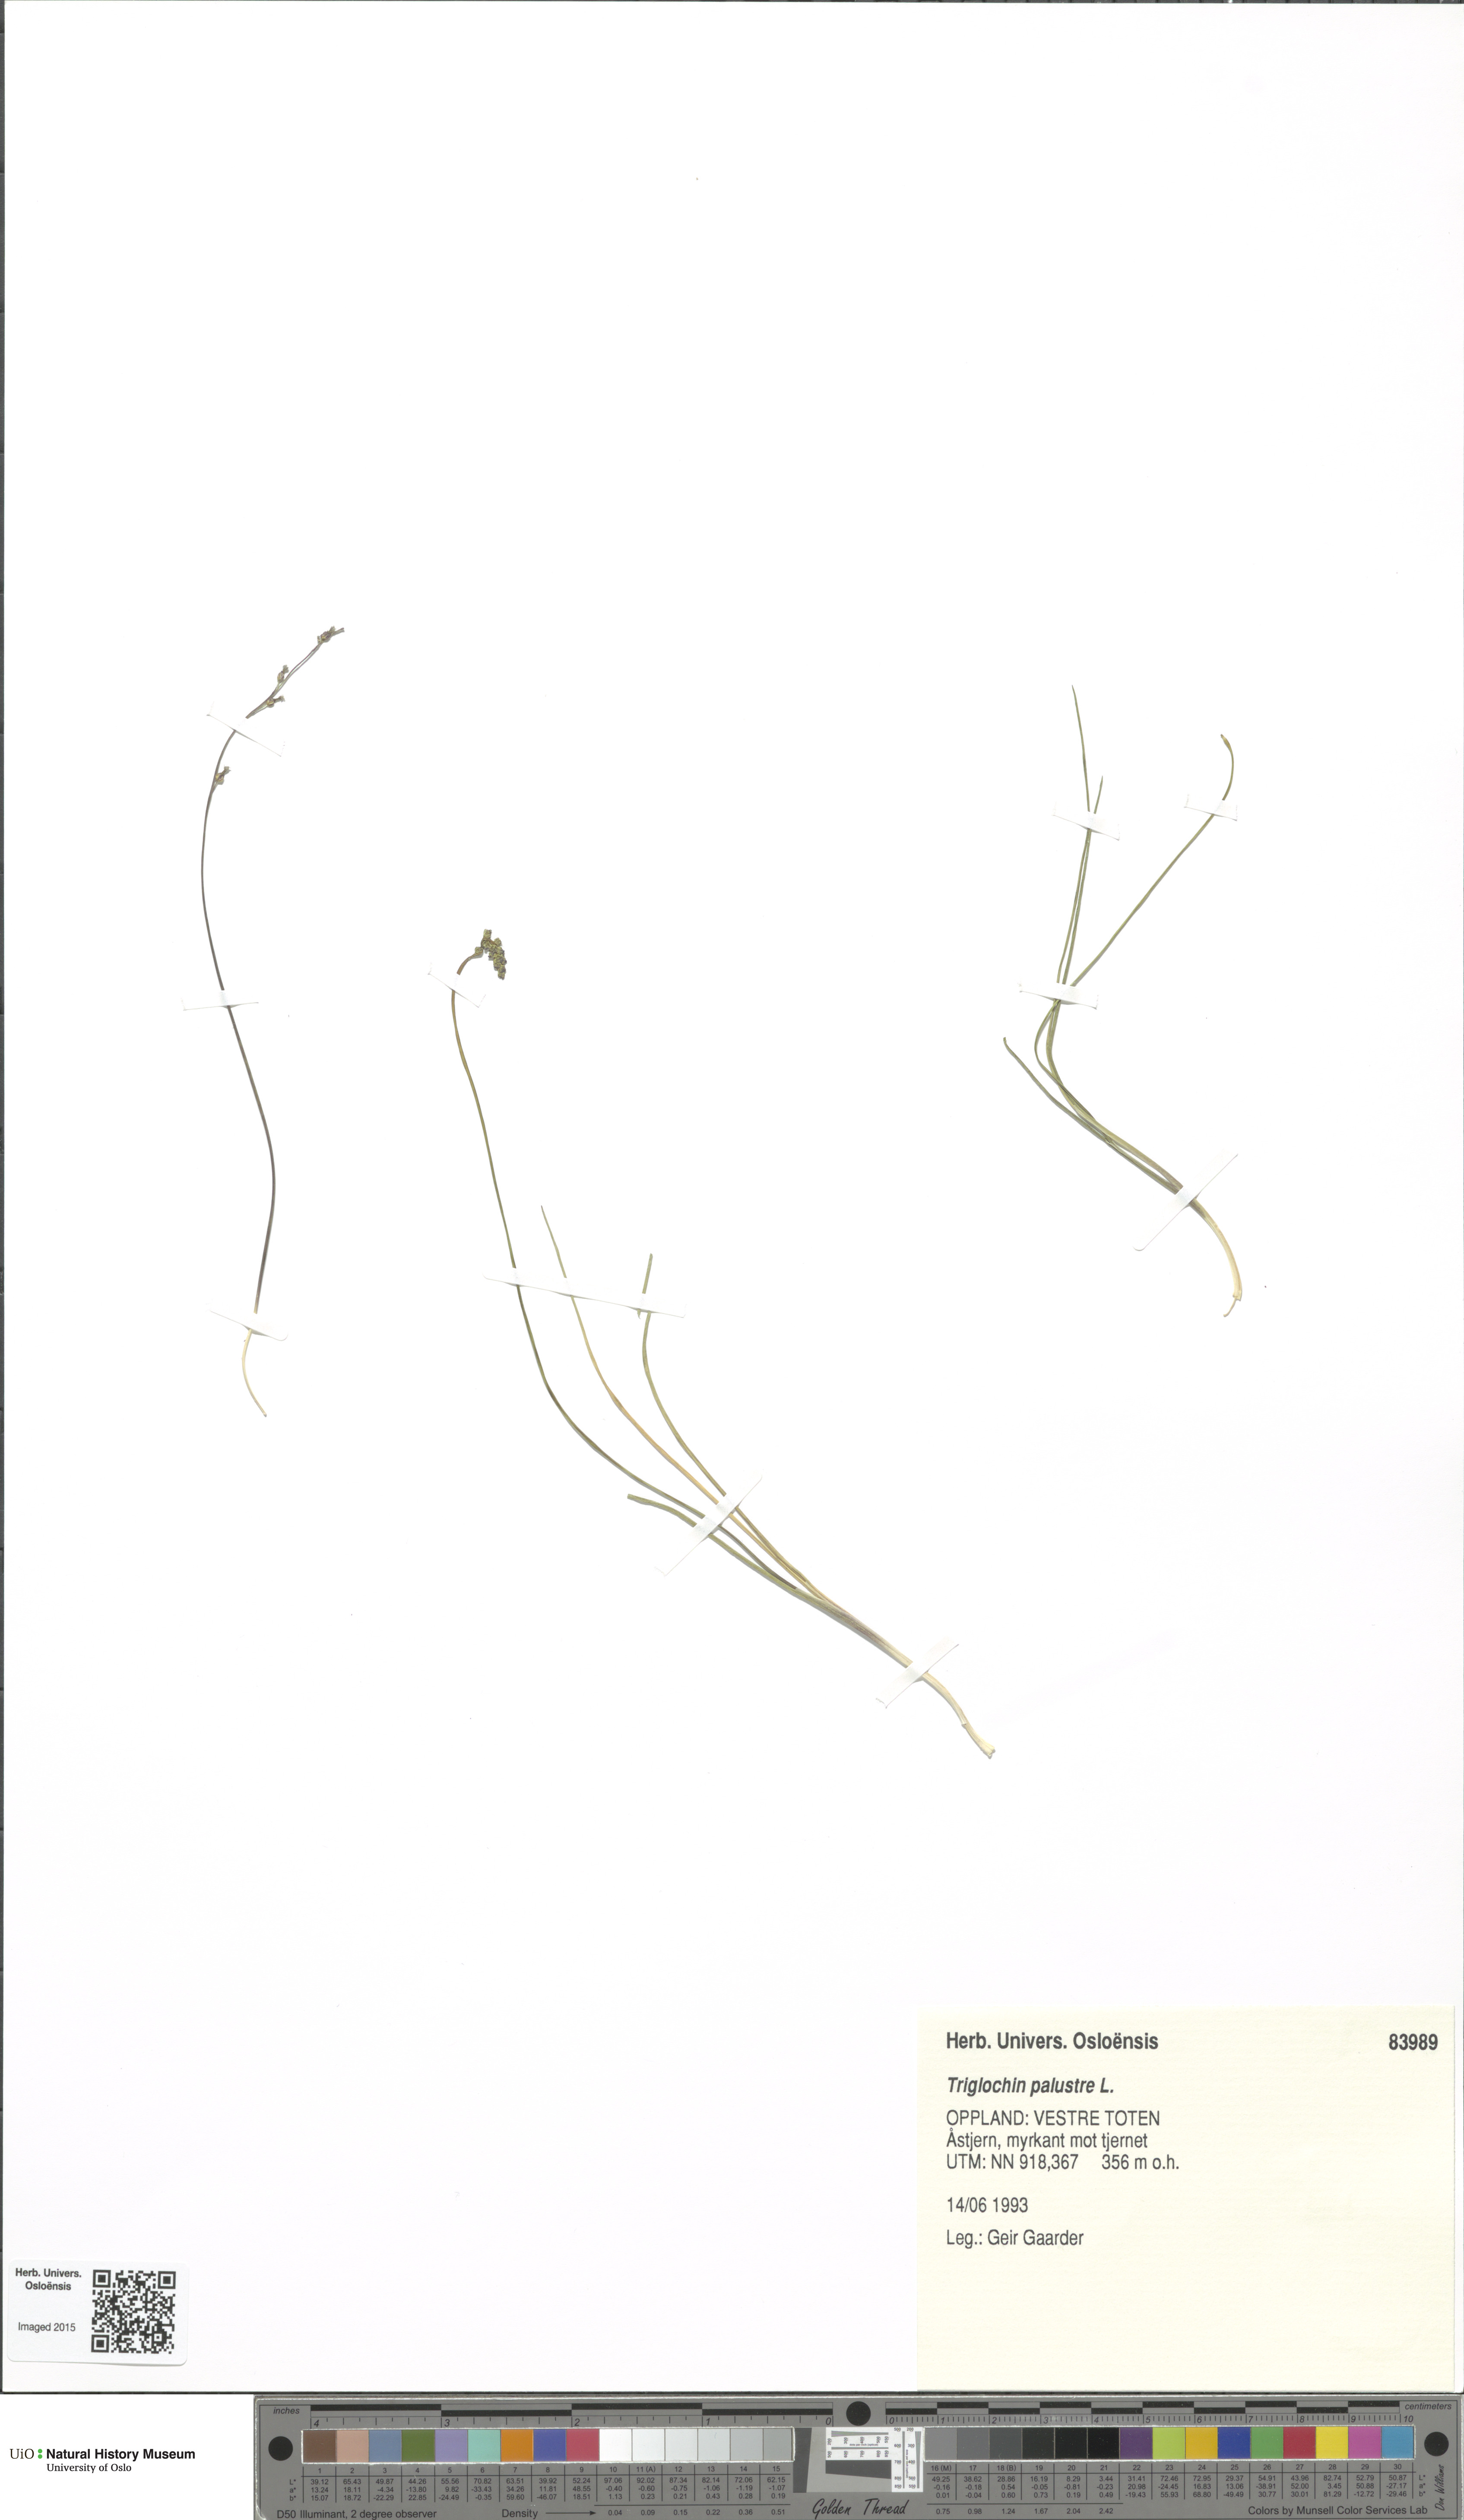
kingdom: Plantae
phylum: Tracheophyta
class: Liliopsida
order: Alismatales
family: Juncaginaceae
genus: Triglochin
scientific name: Triglochin palustris
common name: Marsh arrowgrass
